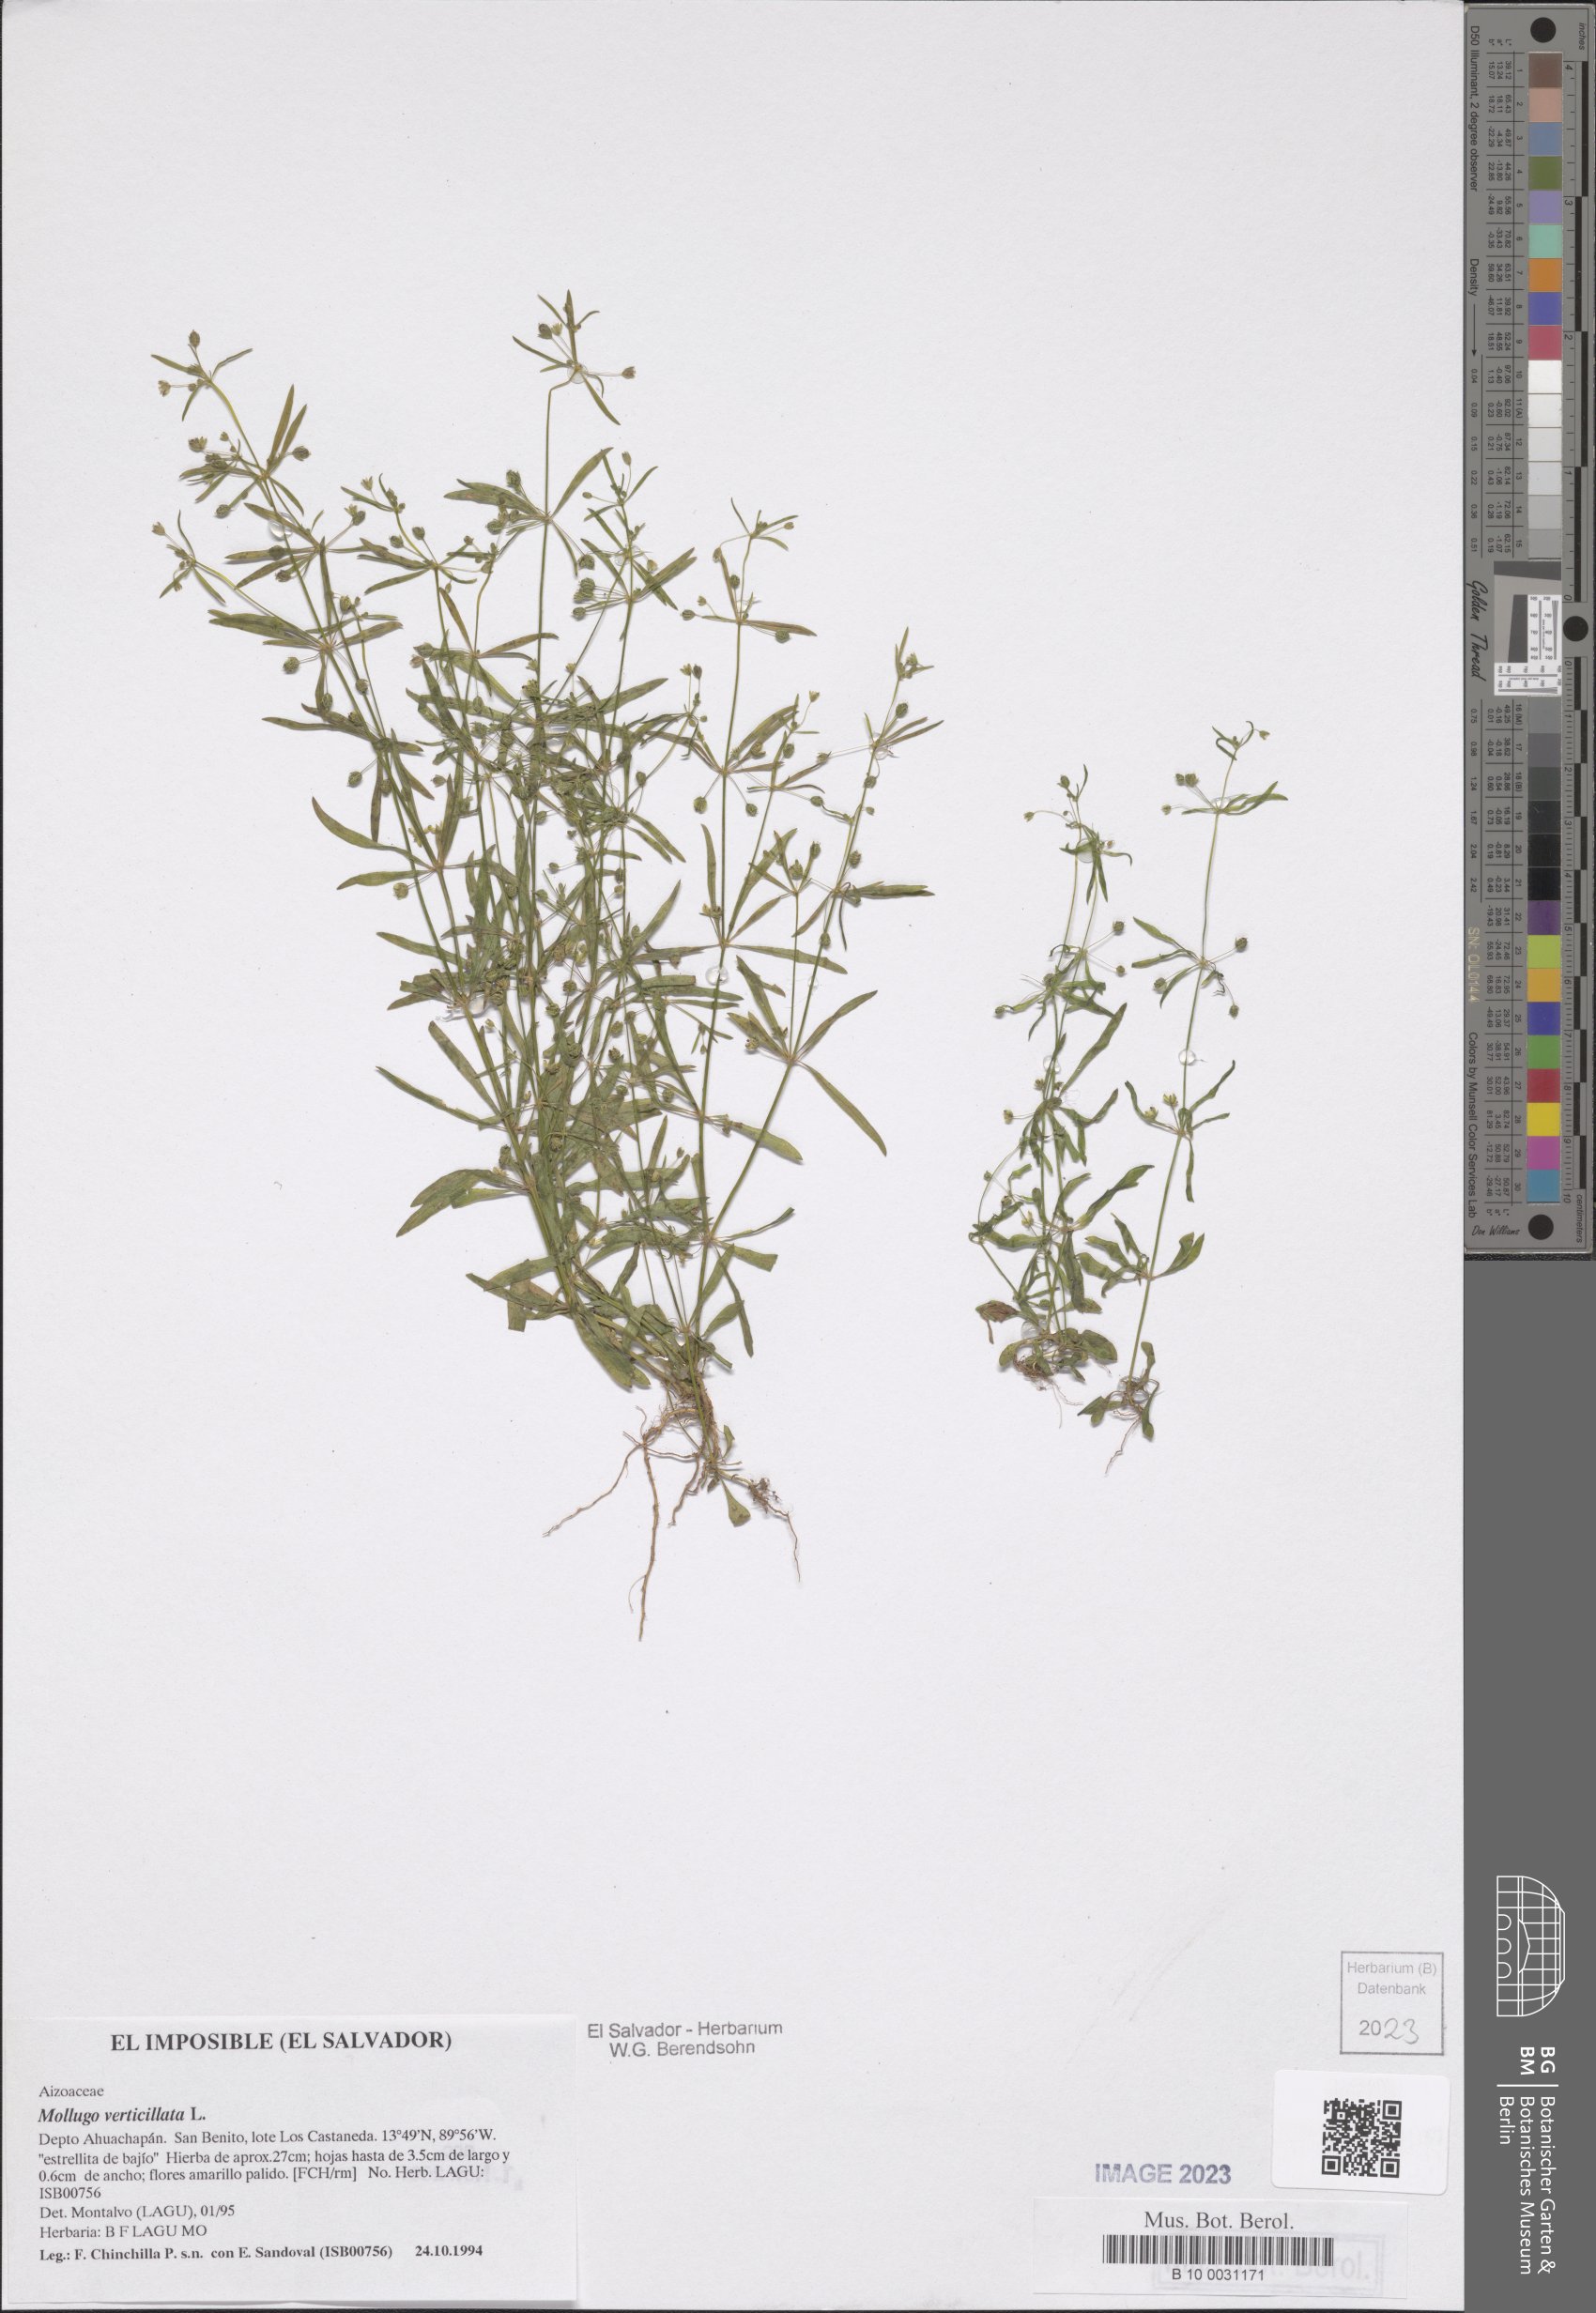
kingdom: Plantae
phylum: Tracheophyta
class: Magnoliopsida
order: Caryophyllales
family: Molluginaceae
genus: Mollugo
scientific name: Mollugo verticillata
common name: Green carpetweed
